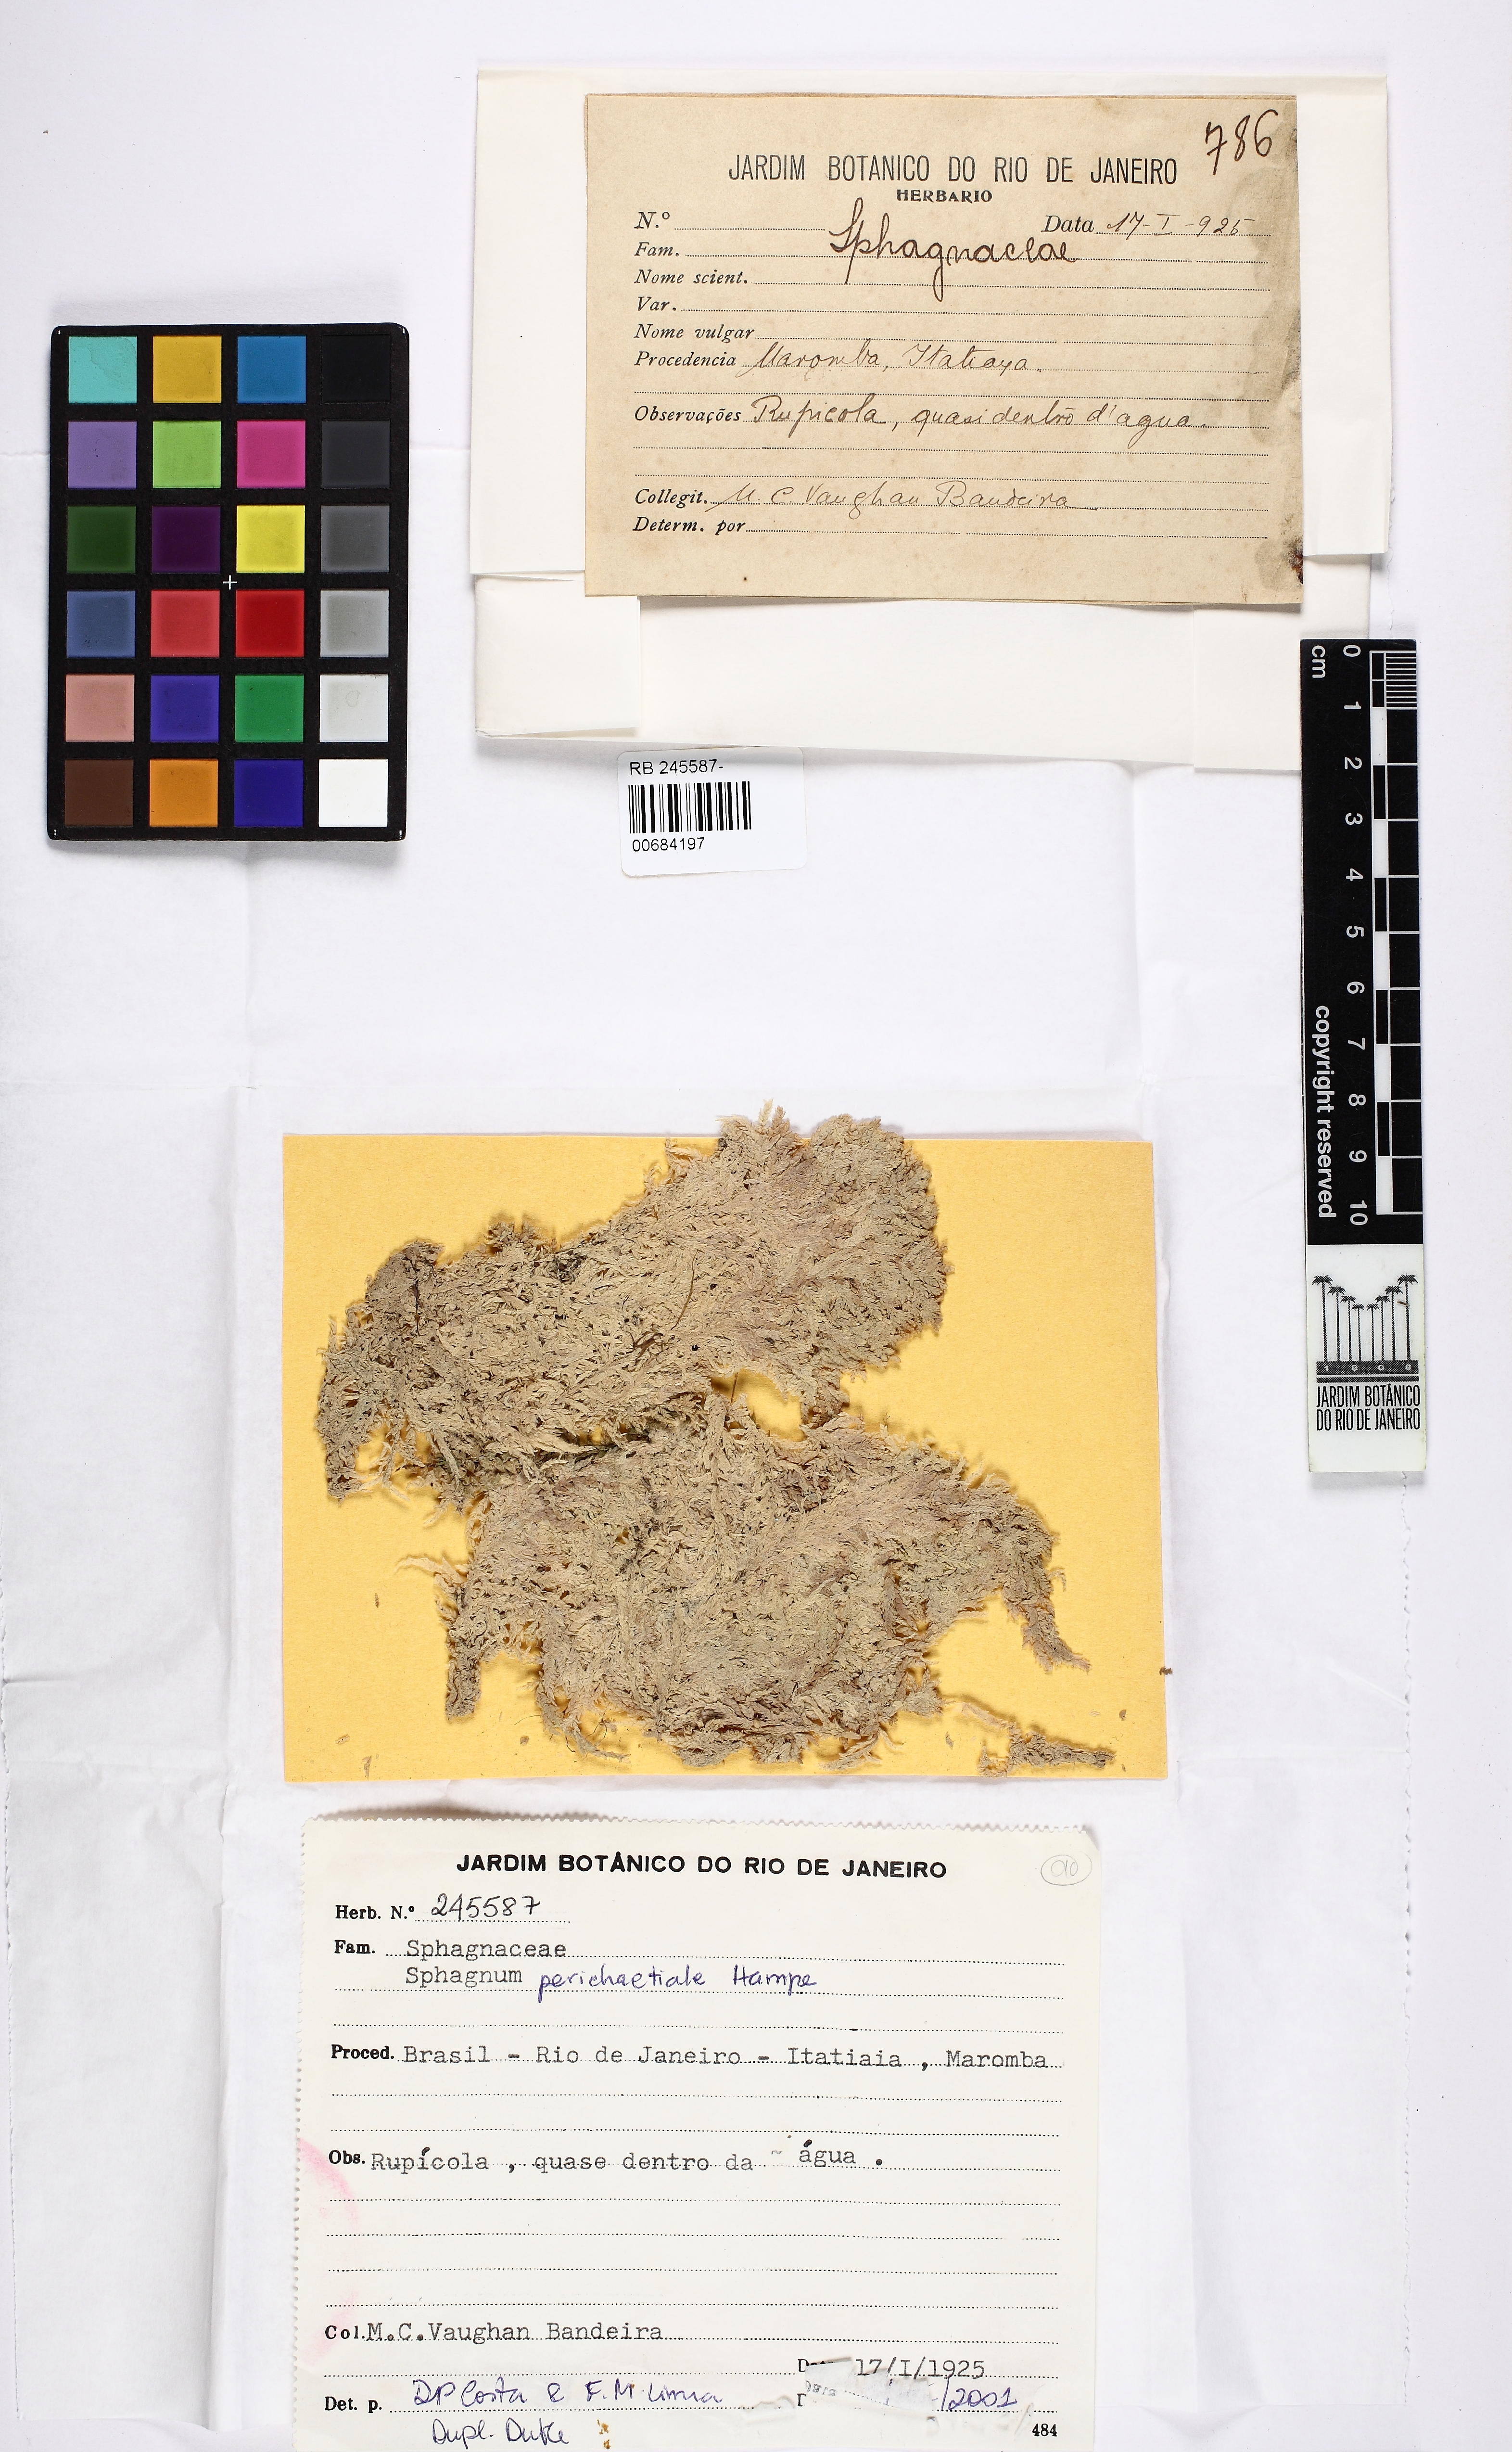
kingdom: Plantae
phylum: Bryophyta
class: Sphagnopsida
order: Sphagnales
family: Sphagnaceae
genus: Sphagnum
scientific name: Sphagnum perichaetiale
